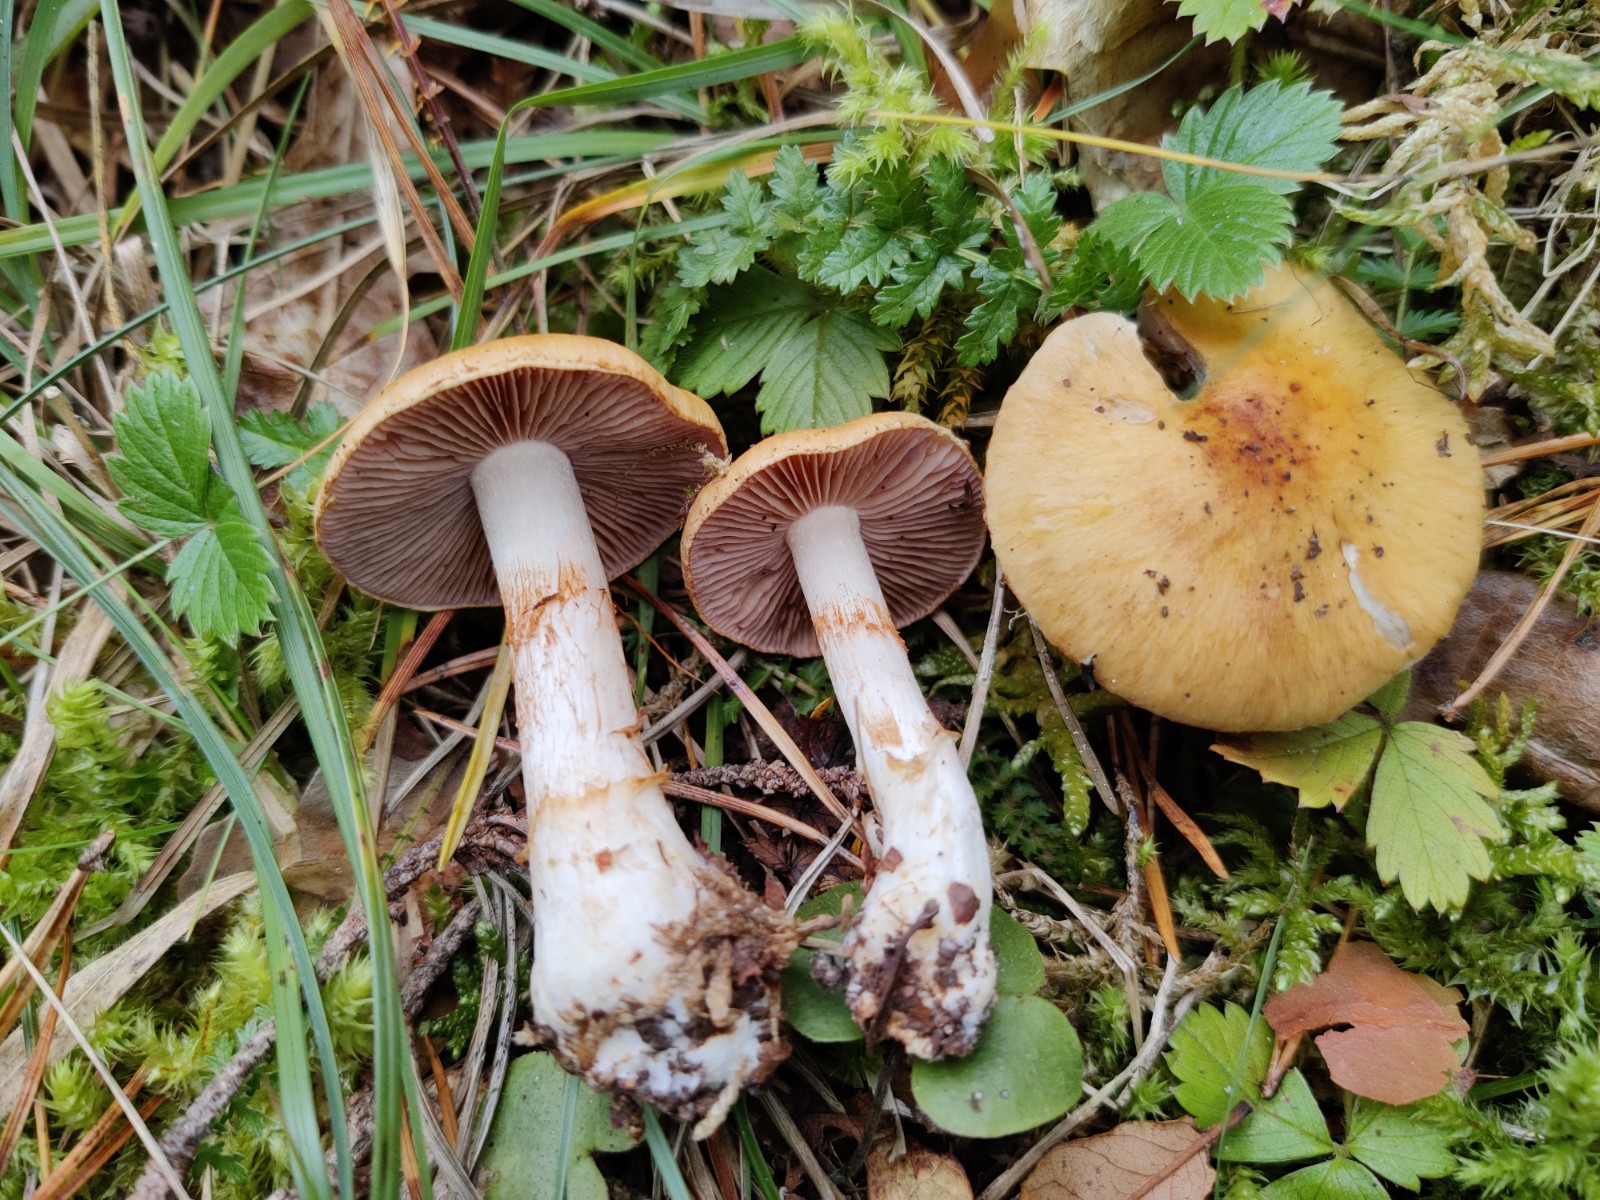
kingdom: Fungi
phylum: Basidiomycota
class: Agaricomycetes
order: Agaricales
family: Cortinariaceae
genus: Phlegmacium
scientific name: Phlegmacium variiforme
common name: løvengs-slørhat
